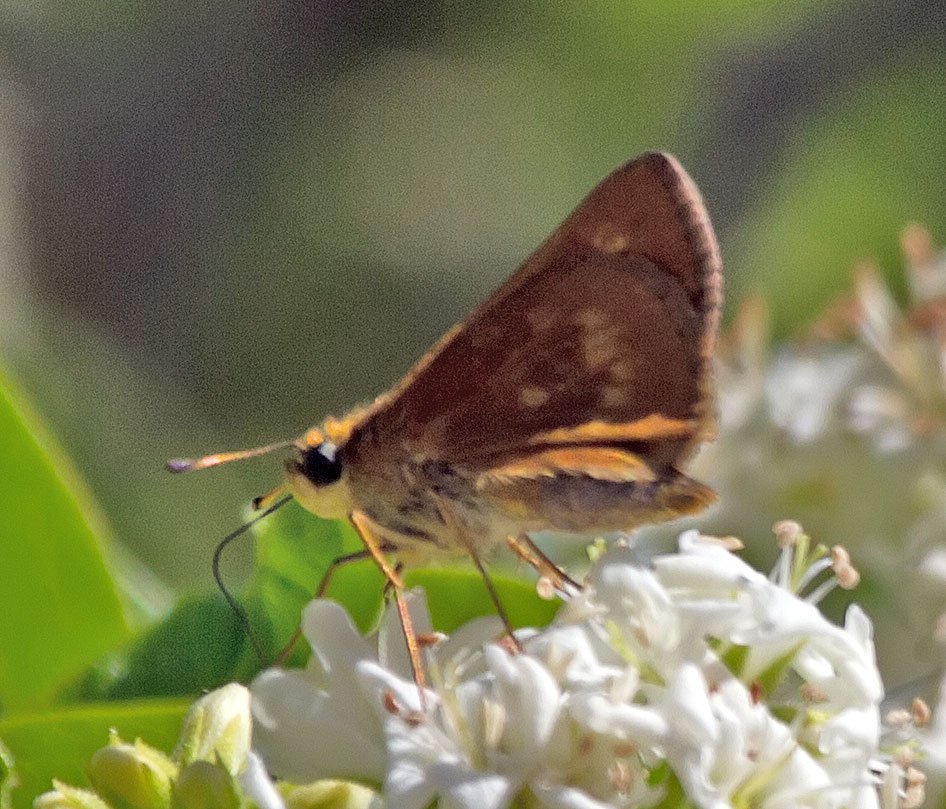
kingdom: Animalia
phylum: Arthropoda
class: Insecta
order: Lepidoptera
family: Hesperiidae
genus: Wallengrenia
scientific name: Wallengrenia otho
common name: Southern Broken-Dash
